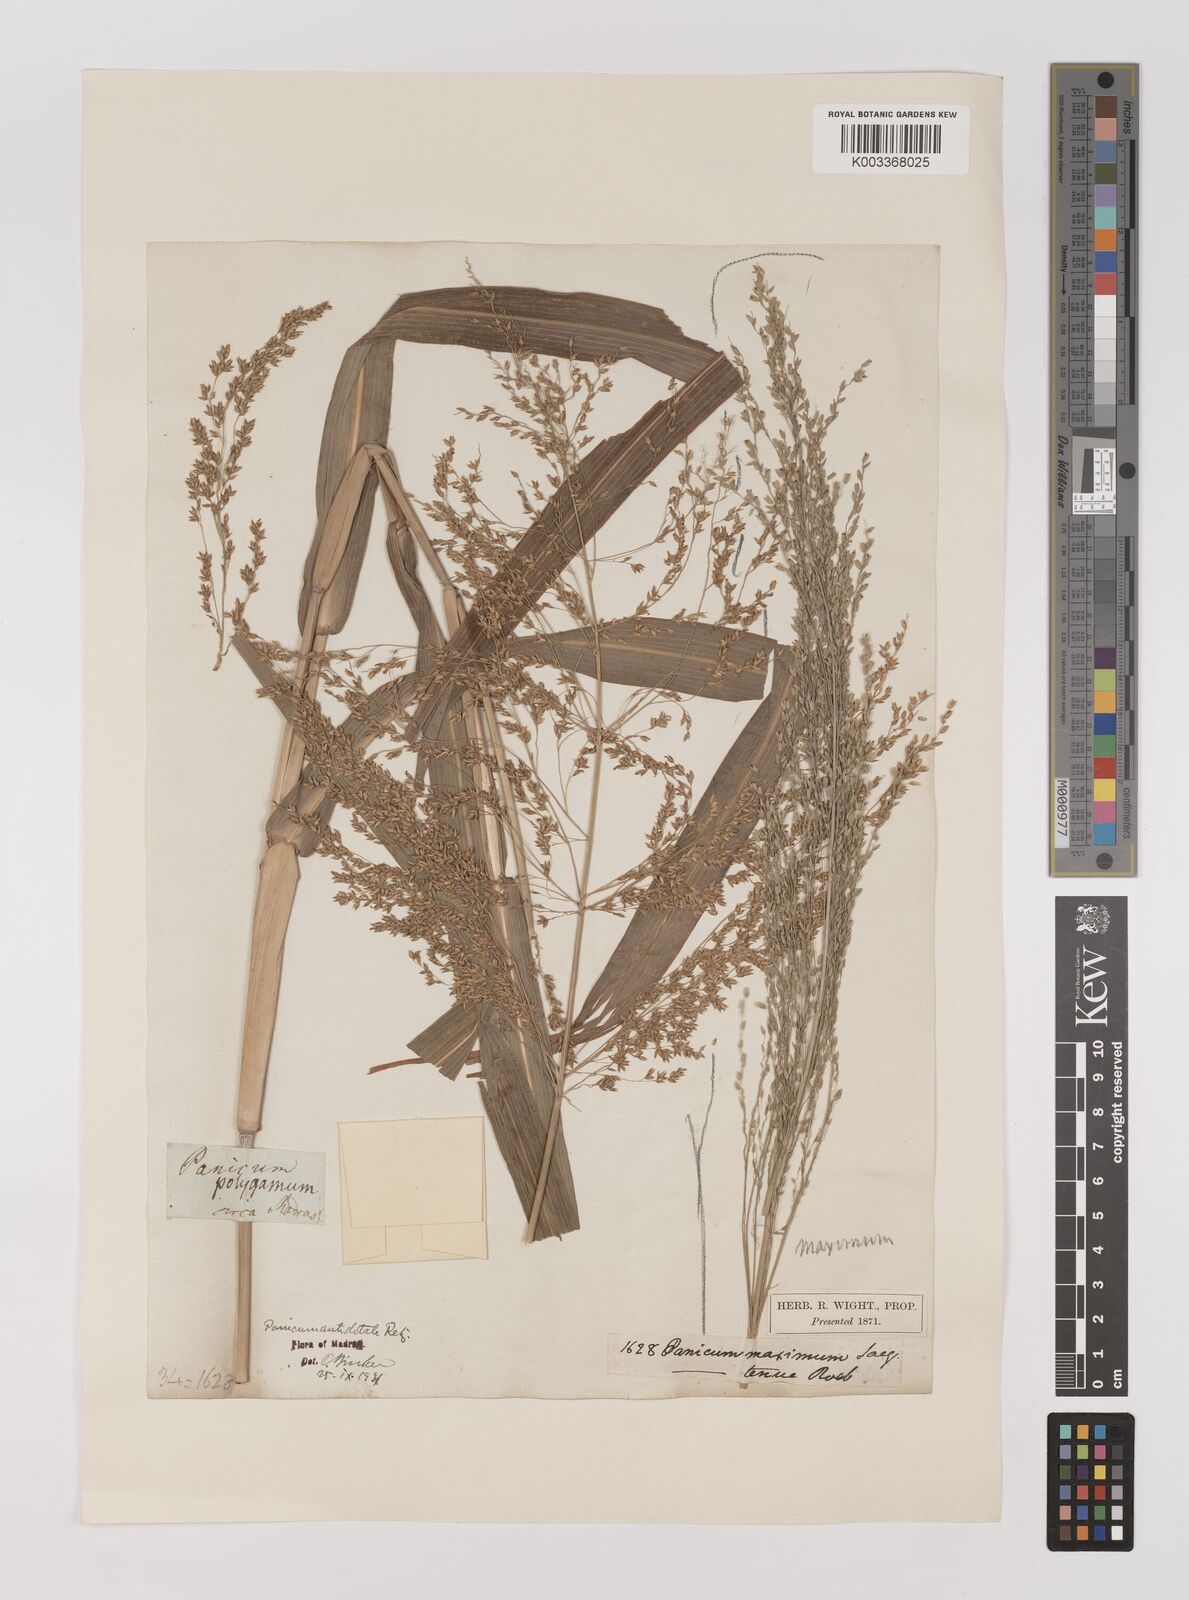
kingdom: Plantae
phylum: Tracheophyta
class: Liliopsida
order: Poales
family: Poaceae
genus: Panicum
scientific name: Panicum antidotale
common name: Blue panicum
